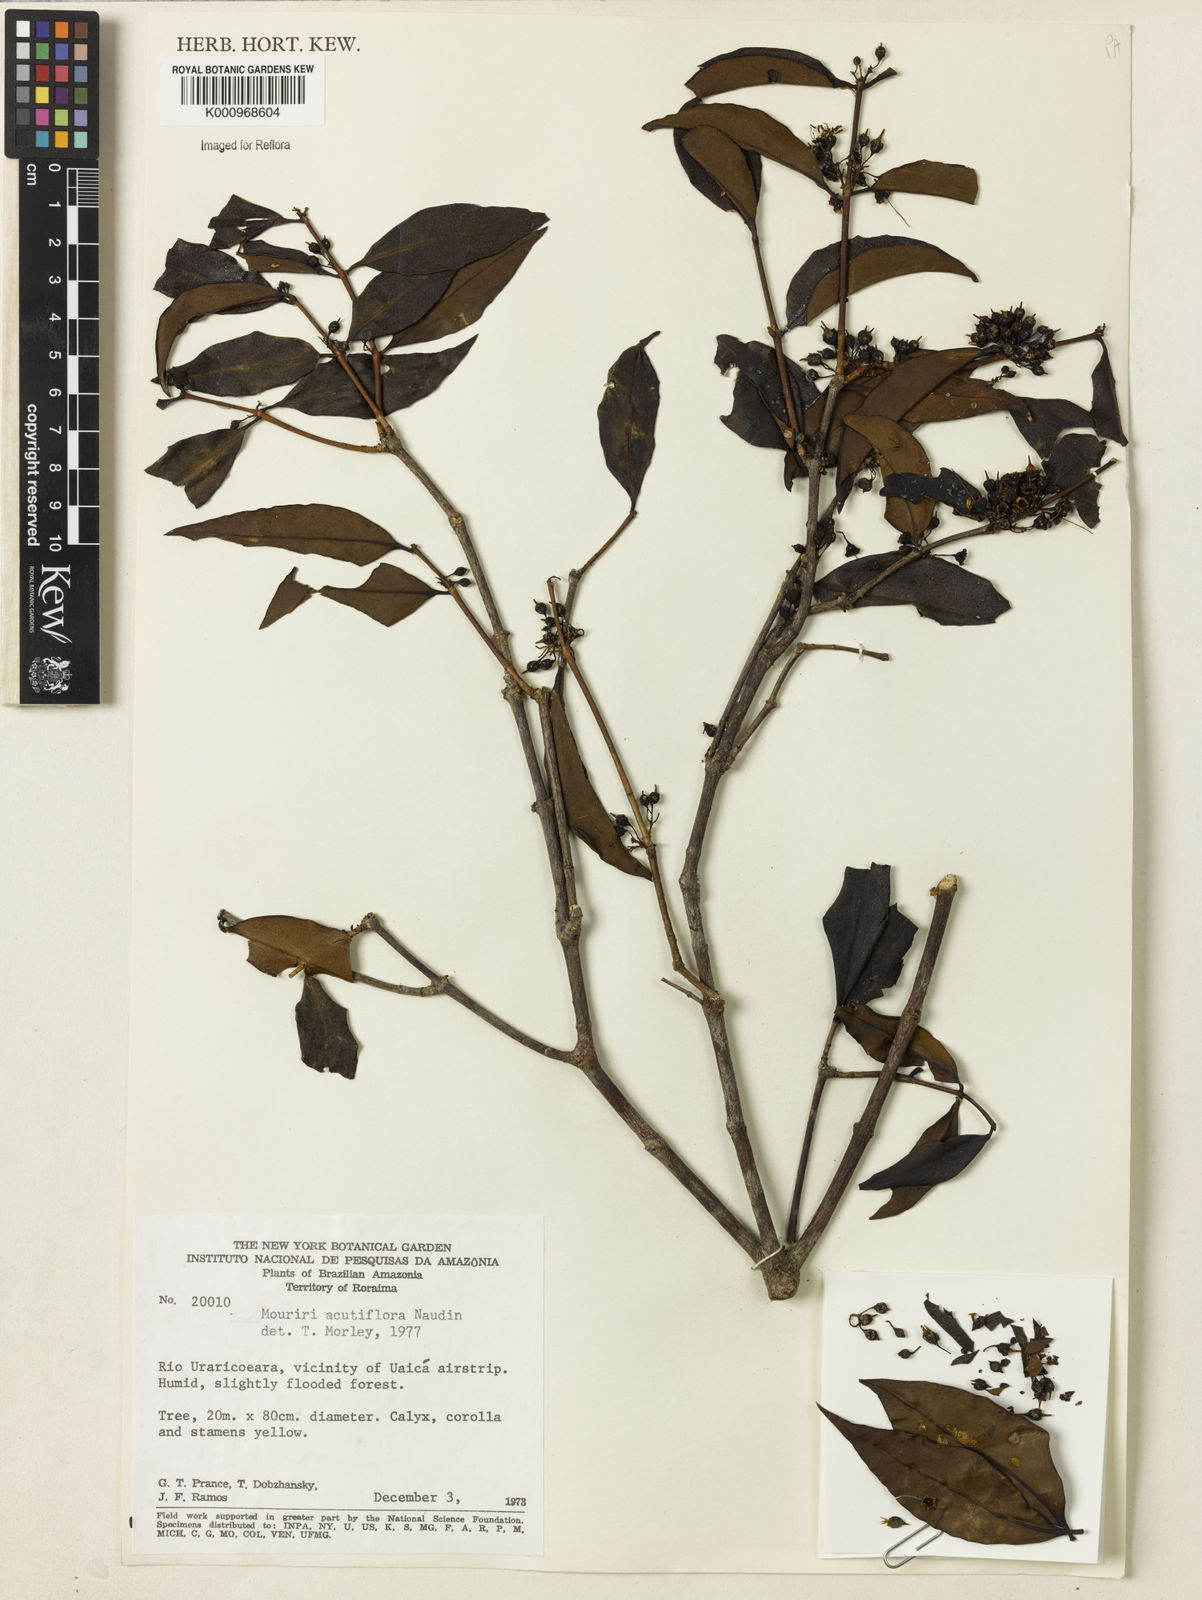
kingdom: Plantae
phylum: Tracheophyta
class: Magnoliopsida
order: Myrtales
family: Melastomataceae
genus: Mouriri
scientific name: Mouriri acutiflora
